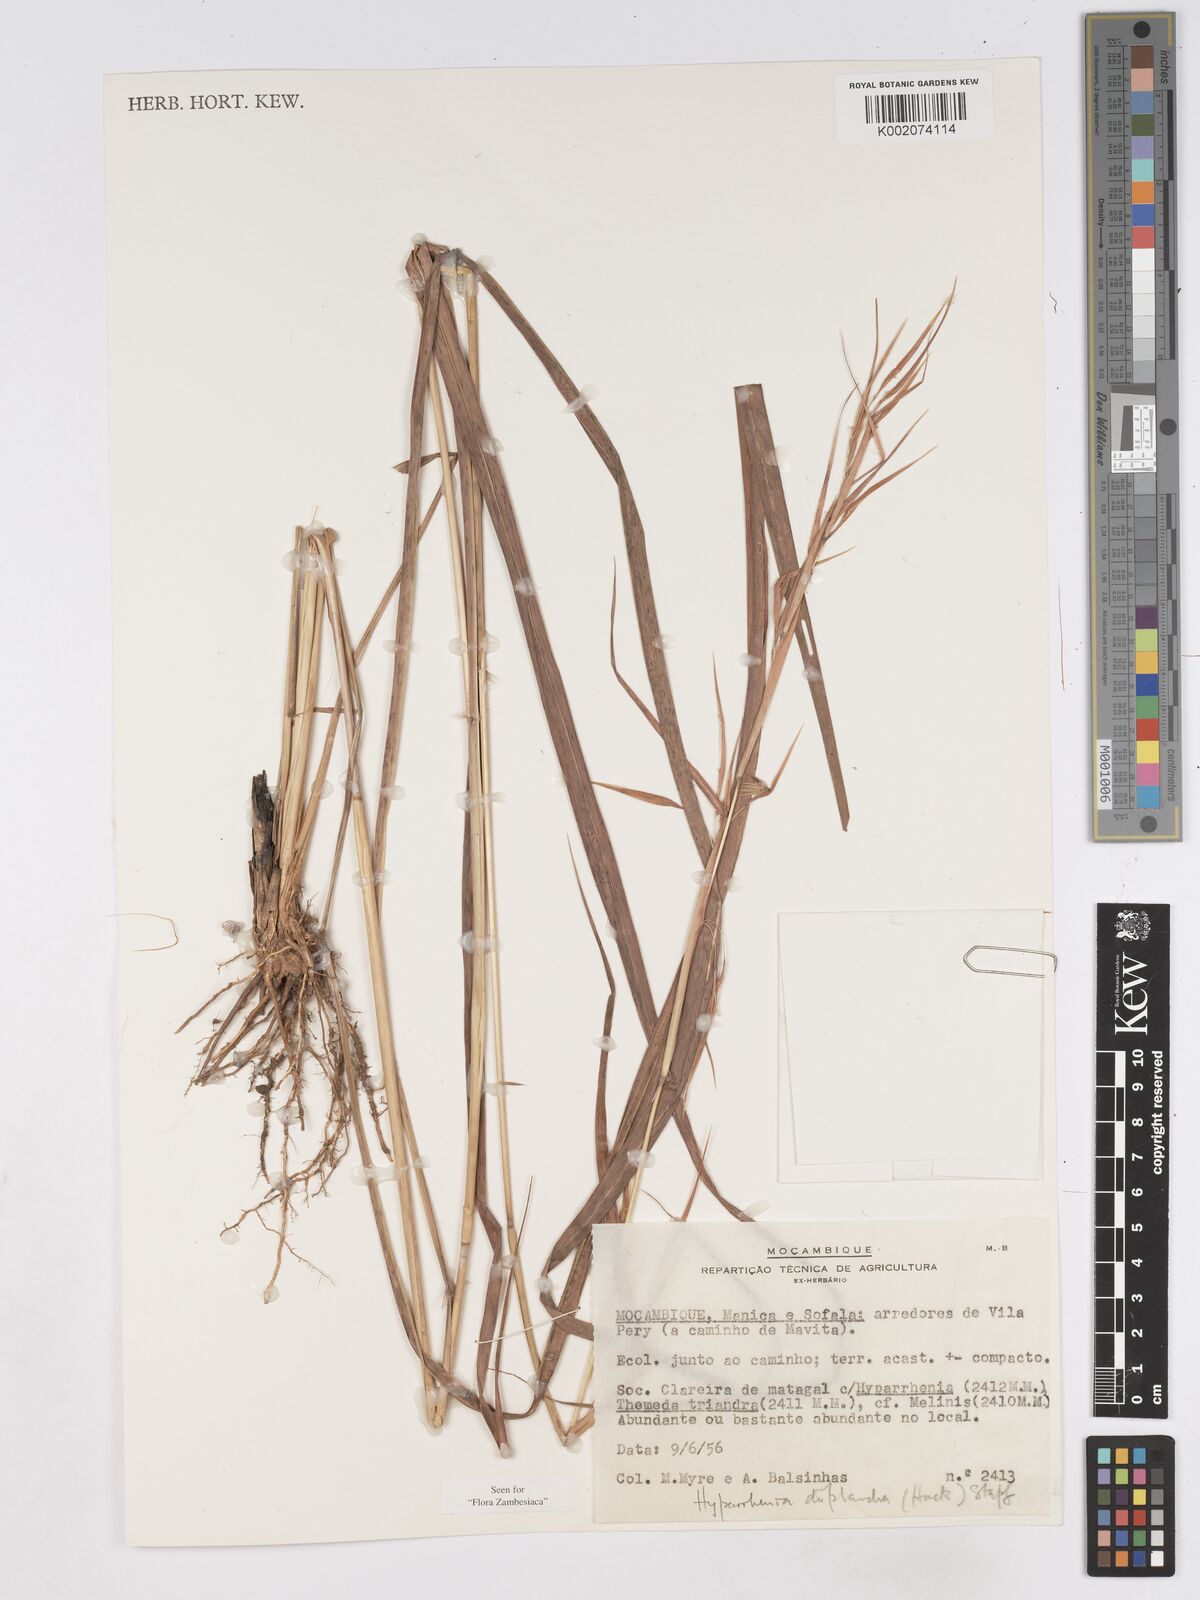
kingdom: Plantae
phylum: Tracheophyta
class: Liliopsida
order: Poales
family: Poaceae
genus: Hyparrhenia
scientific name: Hyparrhenia diplandra
